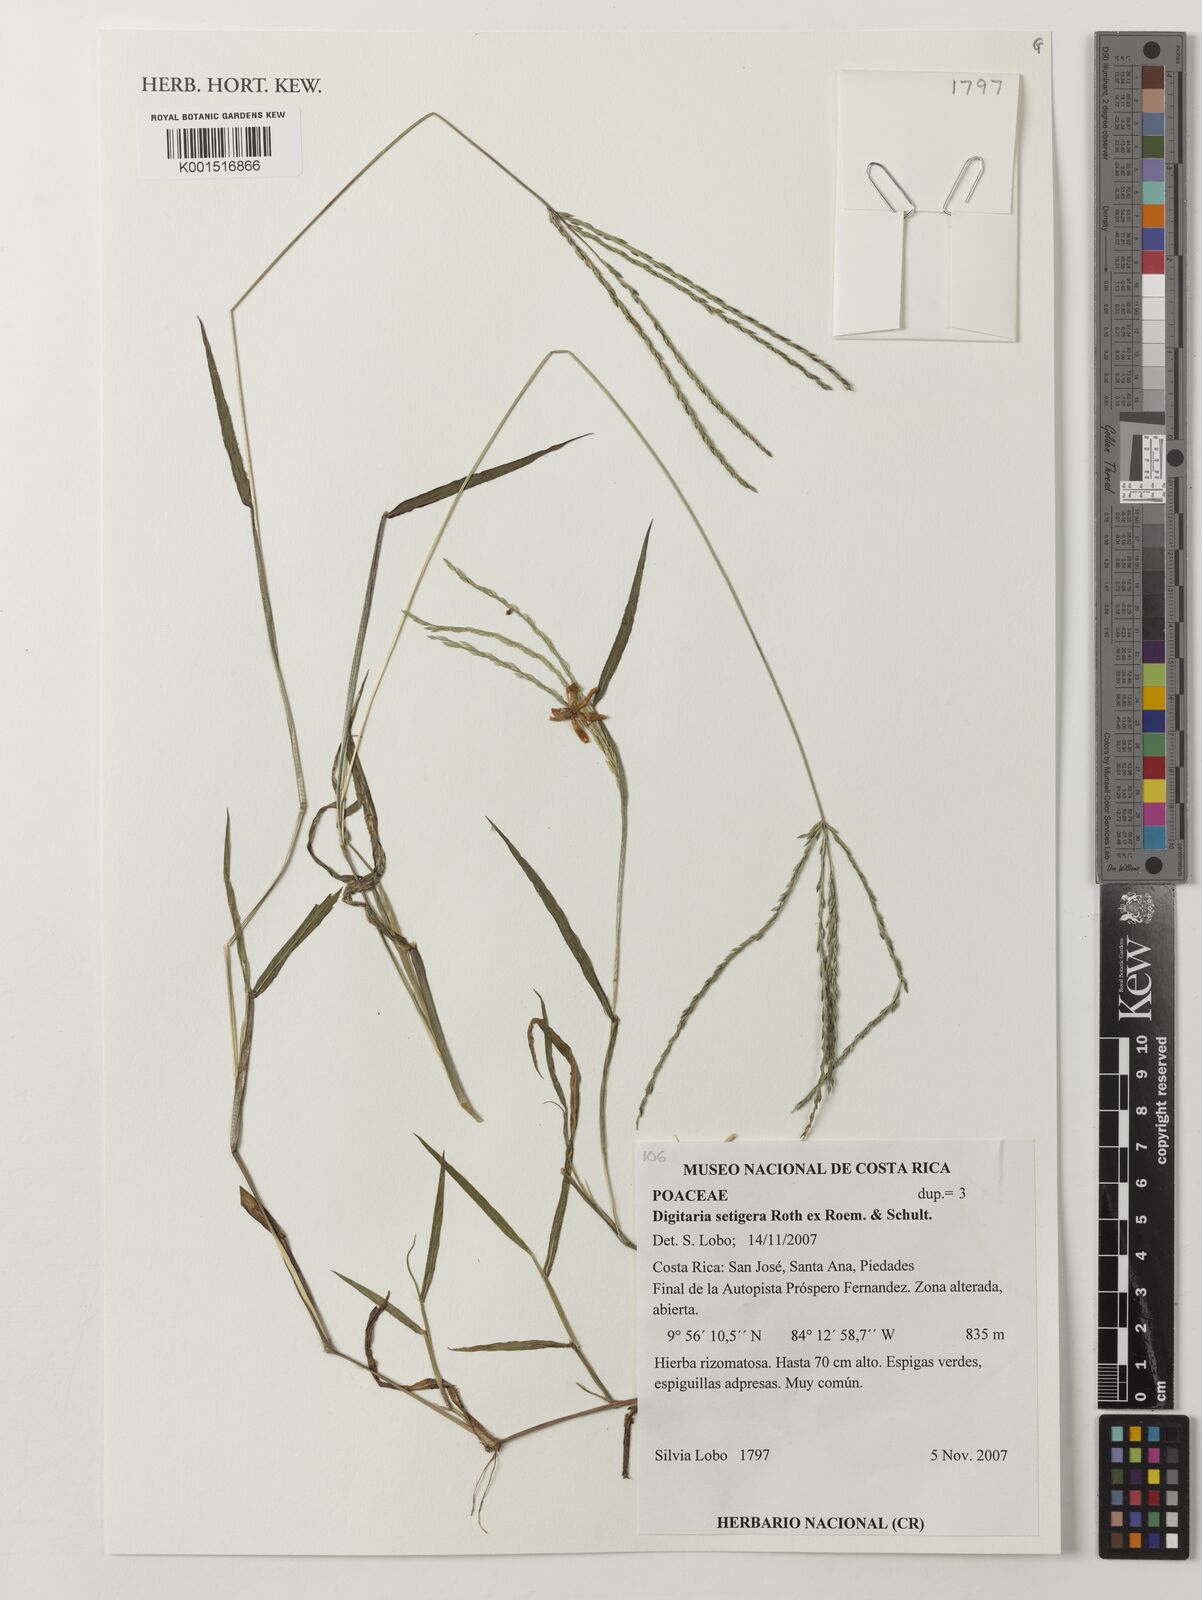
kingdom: Plantae
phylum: Tracheophyta
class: Liliopsida
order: Poales
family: Poaceae
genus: Digitaria
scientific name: Digitaria setigera
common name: East indian crabgrass
